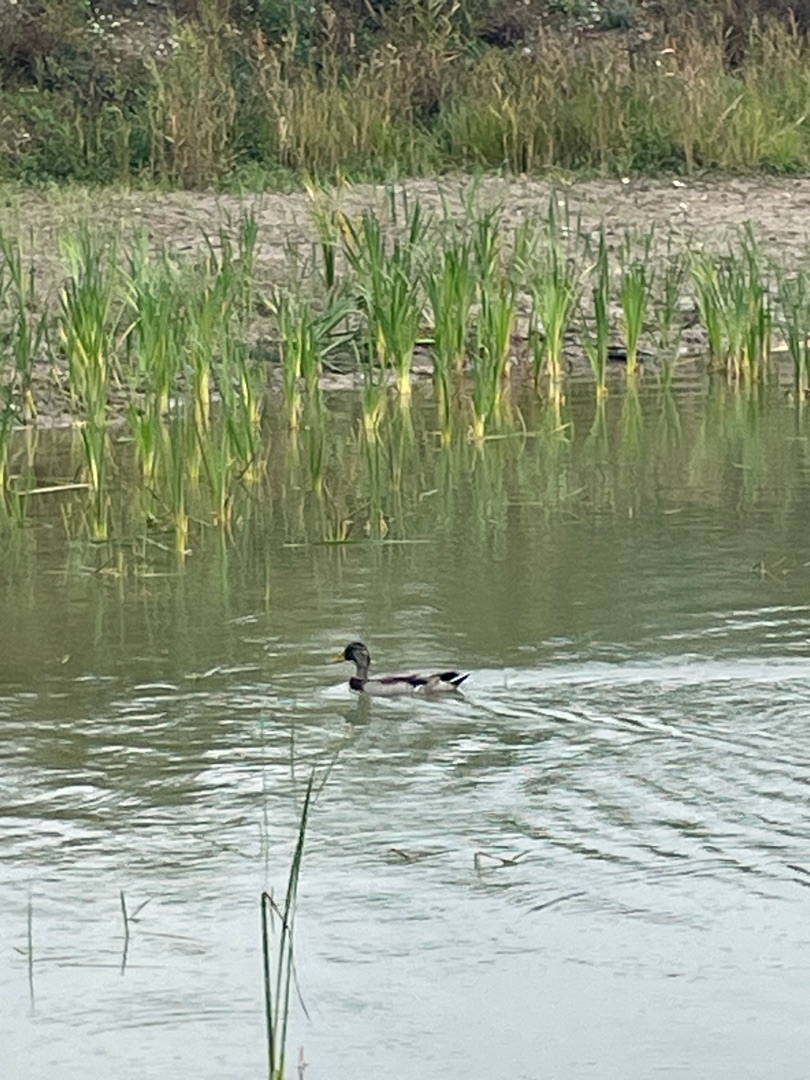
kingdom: Animalia
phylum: Chordata
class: Aves
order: Anseriformes
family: Anatidae
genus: Anas
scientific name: Anas platyrhynchos
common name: Gråand
